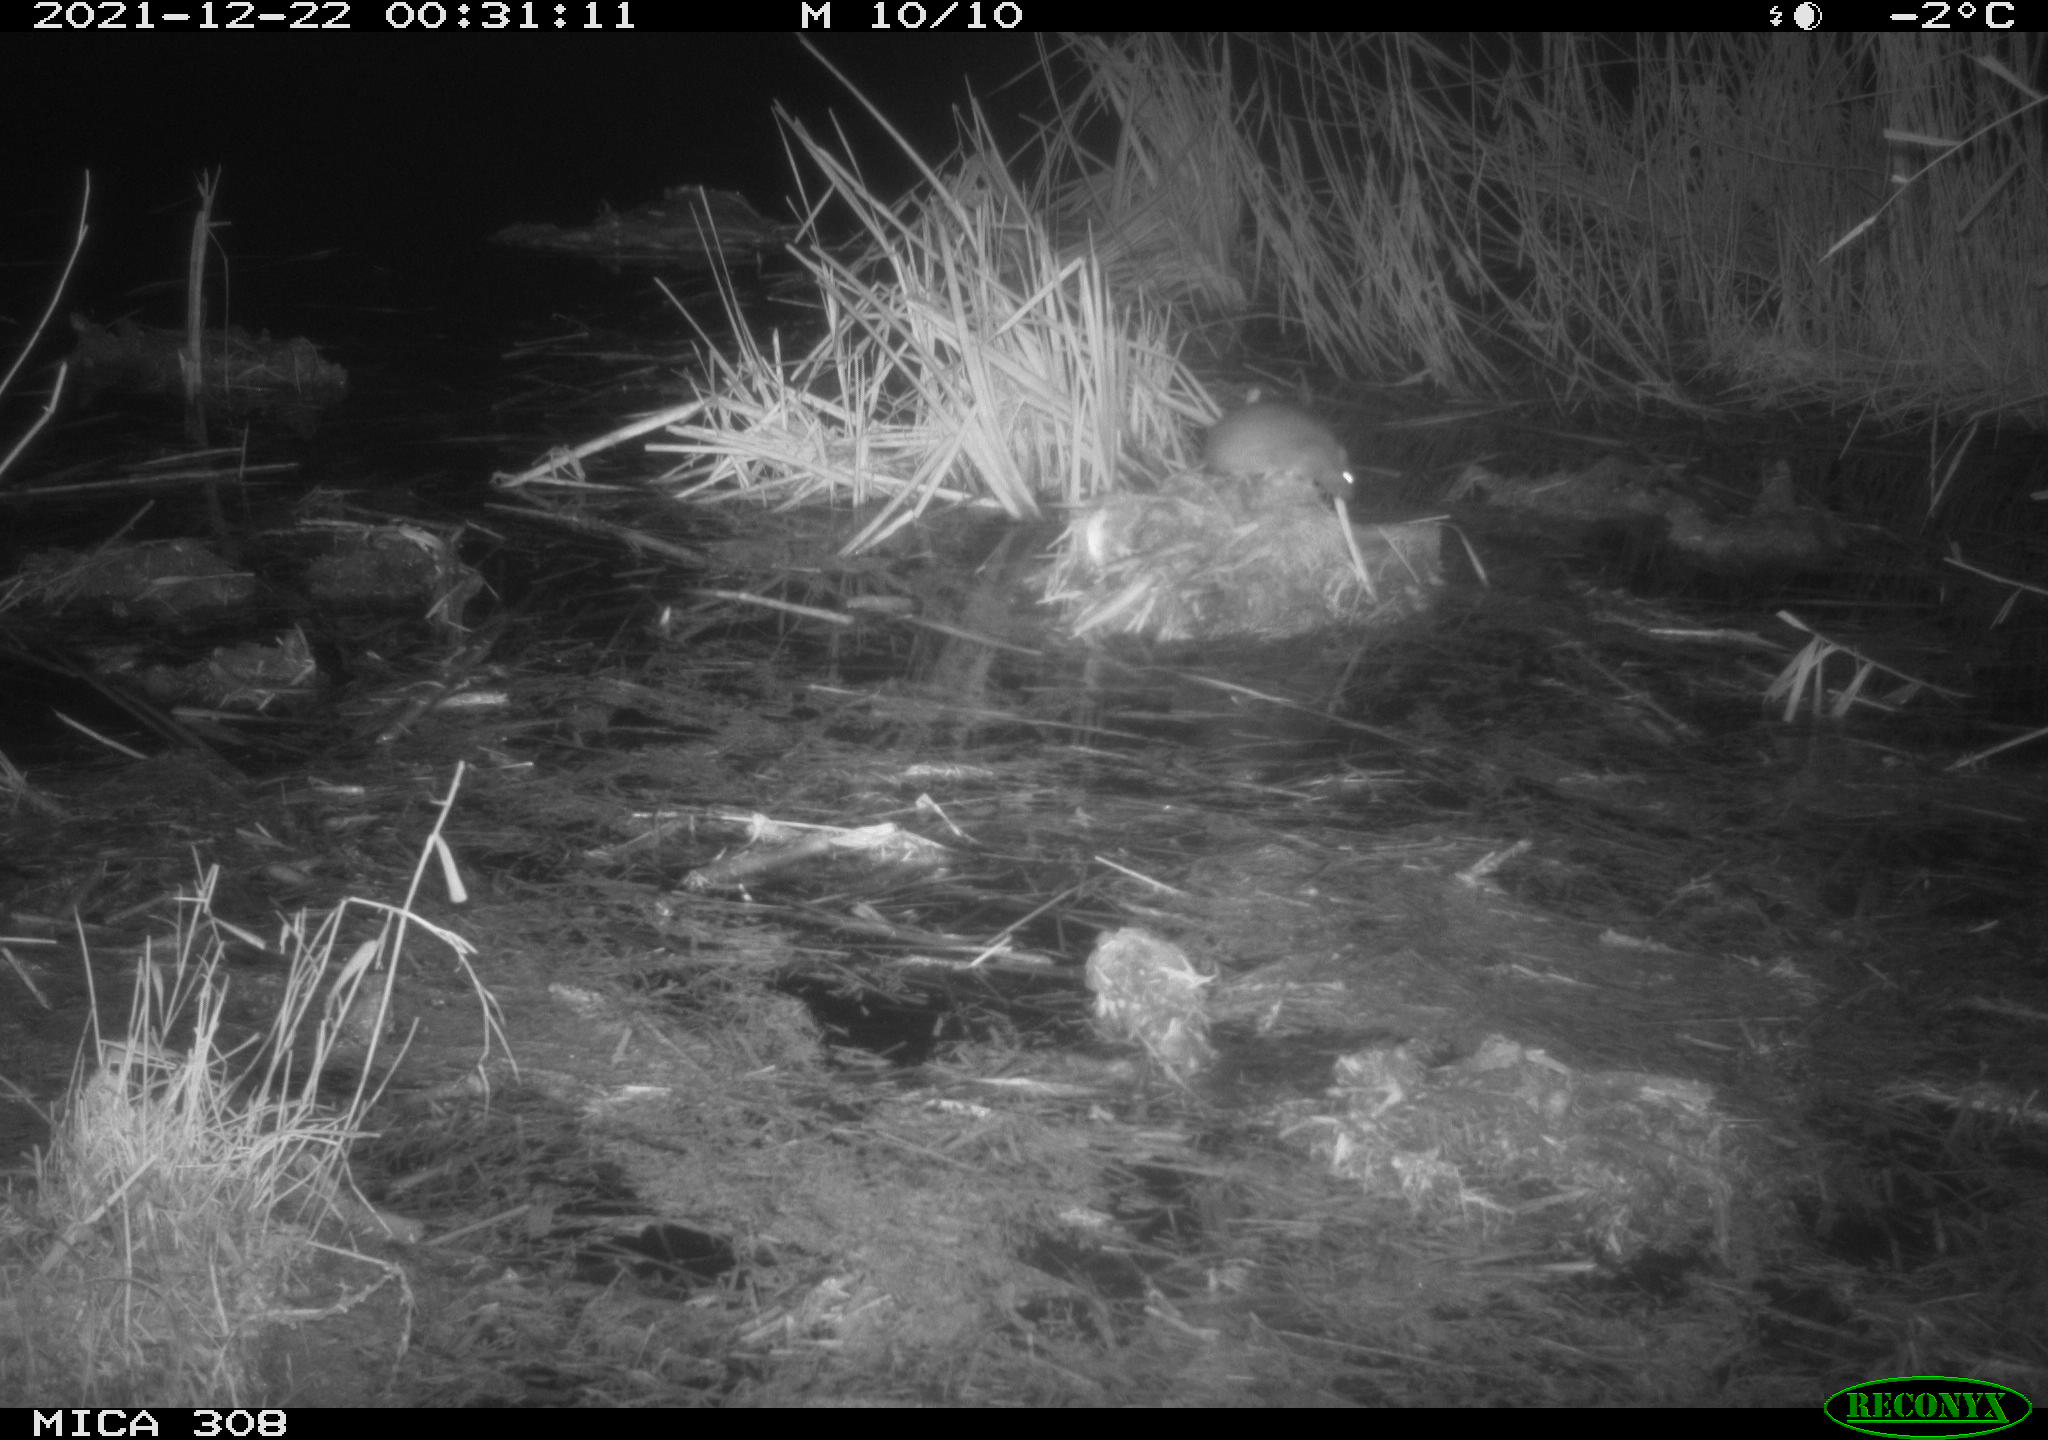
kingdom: Animalia
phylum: Chordata
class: Mammalia
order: Rodentia
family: Muridae
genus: Rattus
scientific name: Rattus norvegicus
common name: Brown rat
